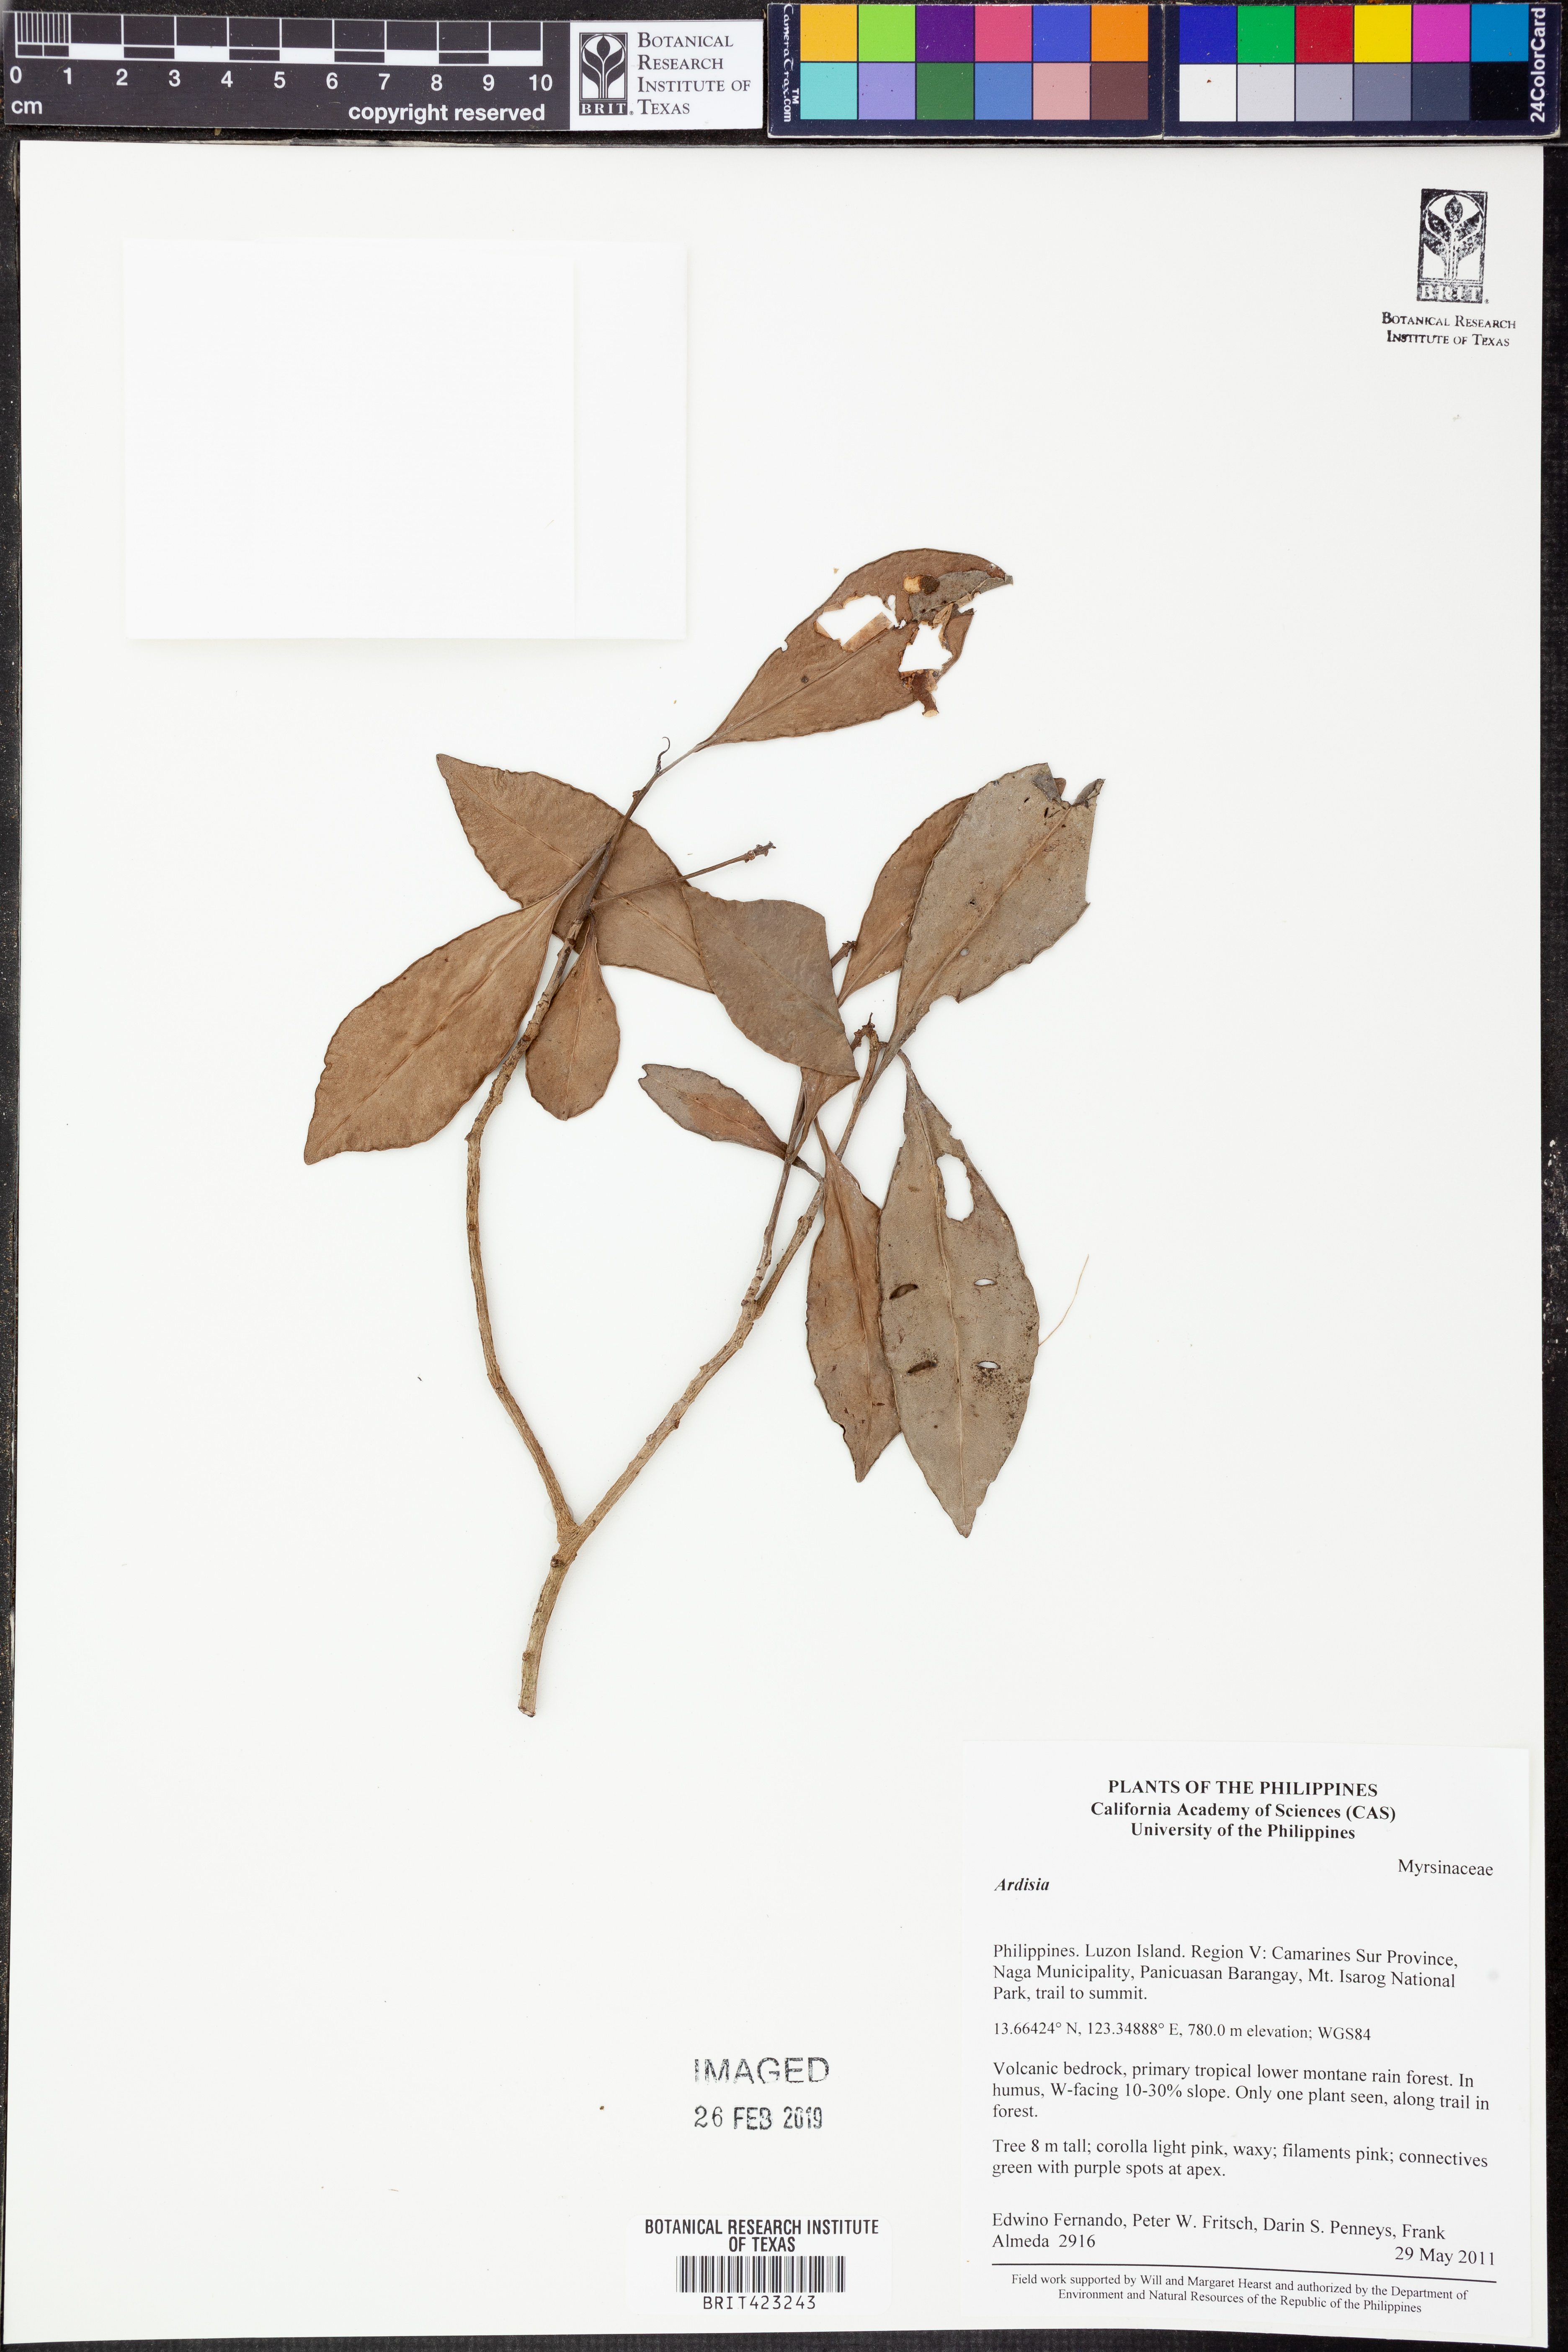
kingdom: Plantae
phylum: Tracheophyta
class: Magnoliopsida
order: Ericales
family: Primulaceae
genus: Ardisia
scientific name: Ardisia
